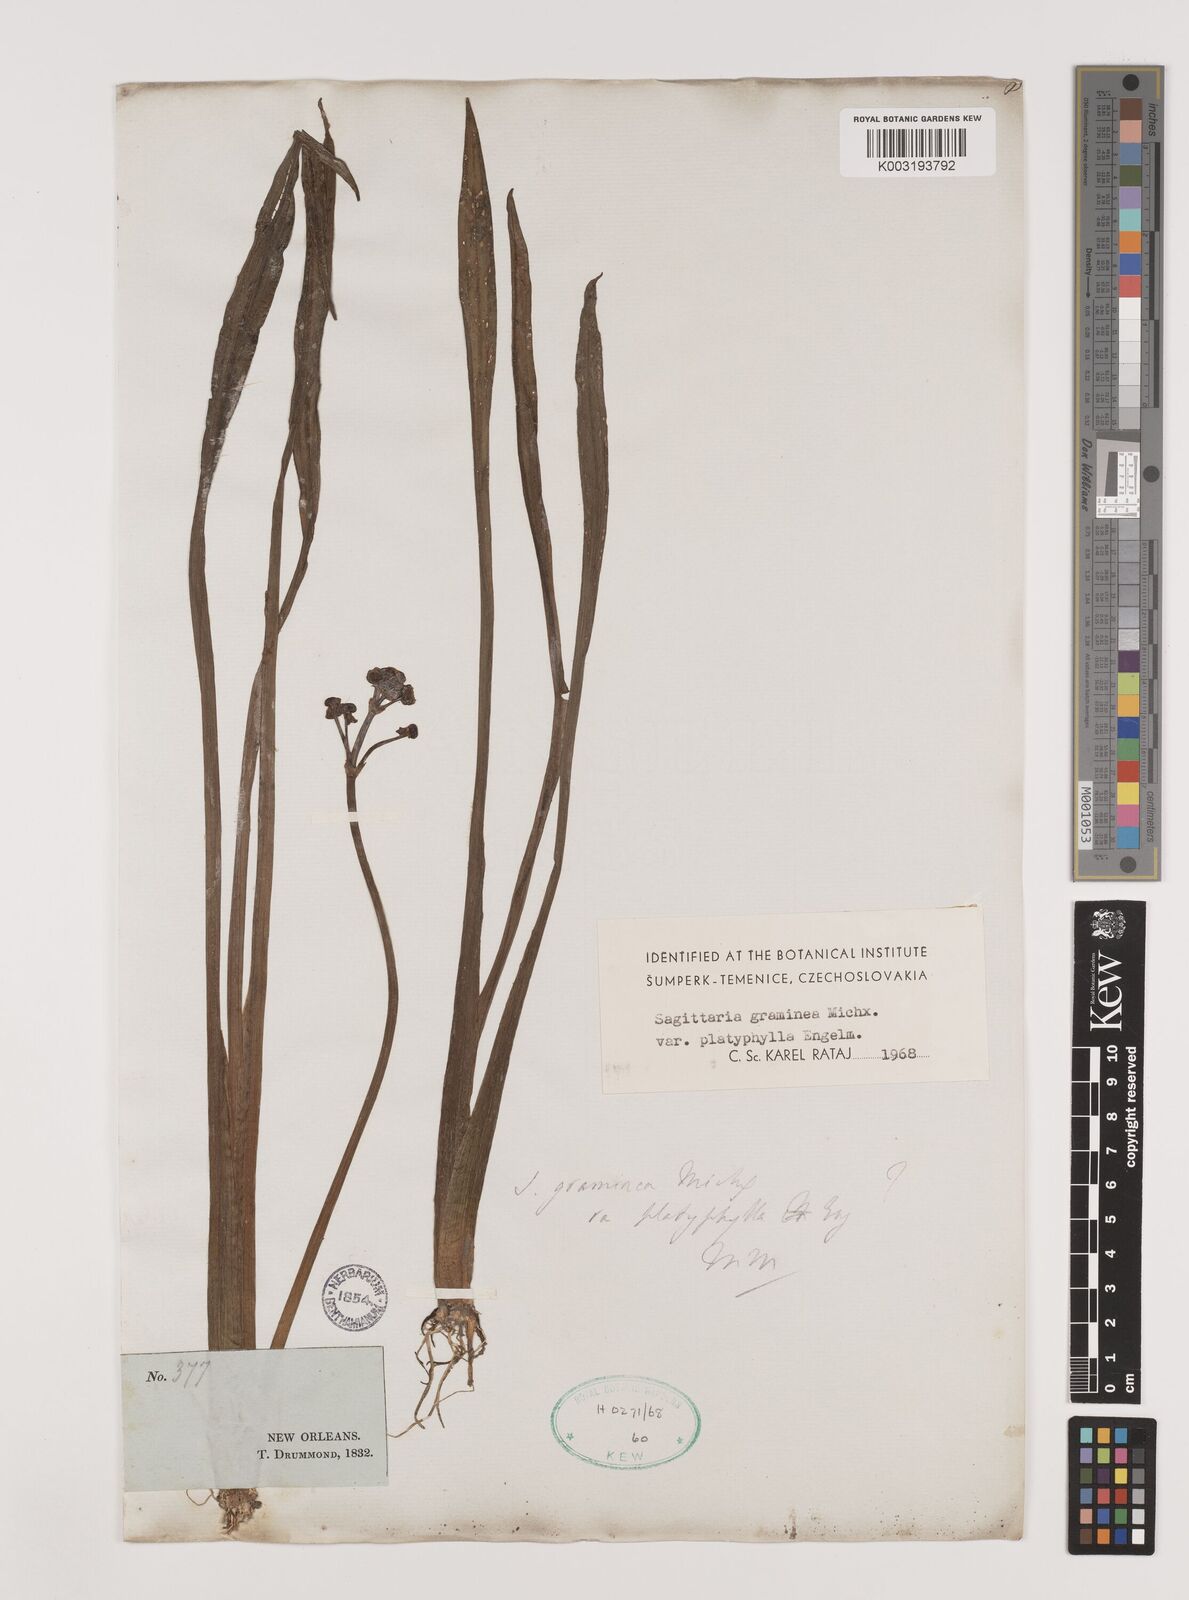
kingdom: Plantae
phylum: Tracheophyta
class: Liliopsida
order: Alismatales
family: Alismataceae
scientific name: Alismataceae
